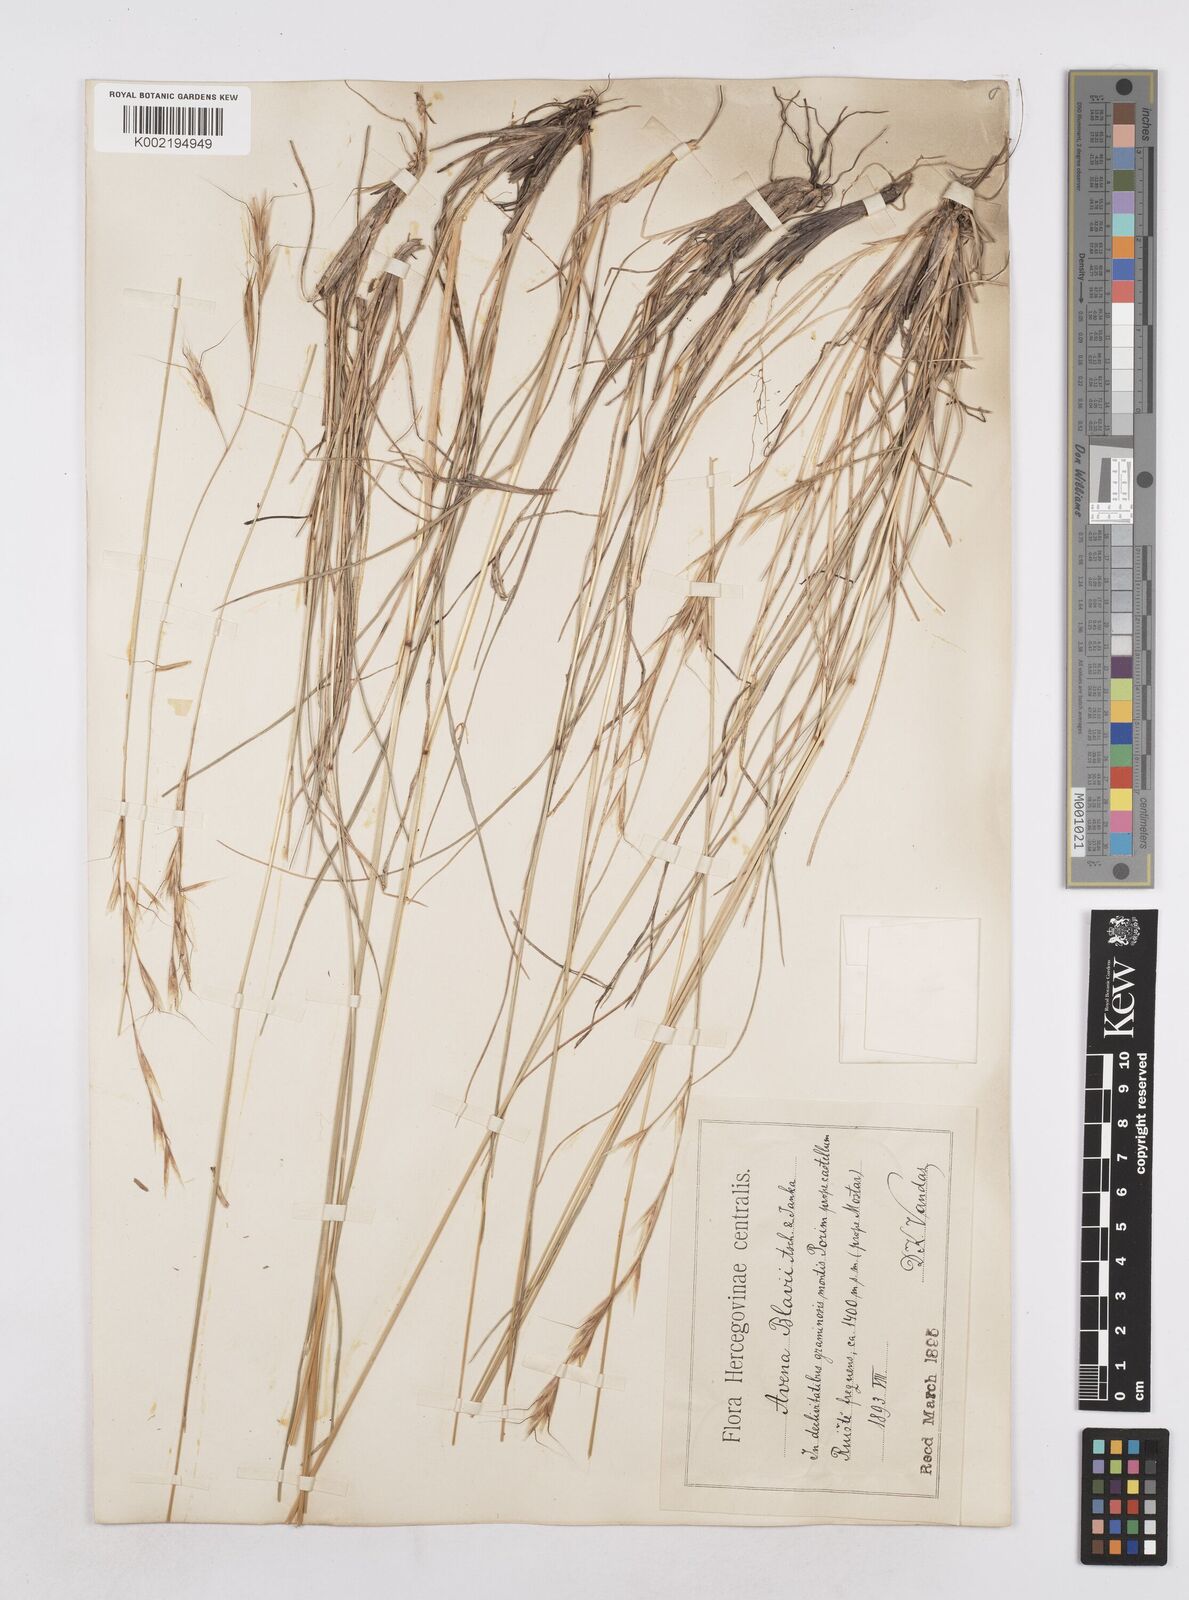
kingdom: Plantae
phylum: Tracheophyta
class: Liliopsida
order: Poales
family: Poaceae
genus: Helictochloa
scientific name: Helictochloa blaui
